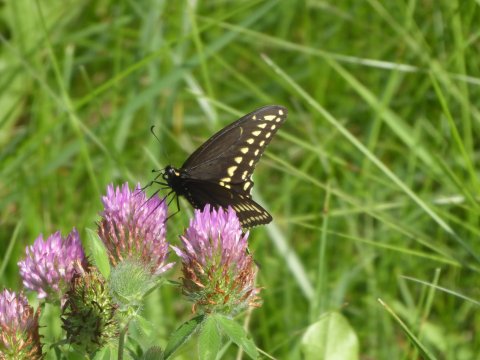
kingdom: Animalia
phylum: Arthropoda
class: Insecta
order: Lepidoptera
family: Papilionidae
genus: Papilio
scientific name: Papilio polyxenes
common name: Black Swallowtail
